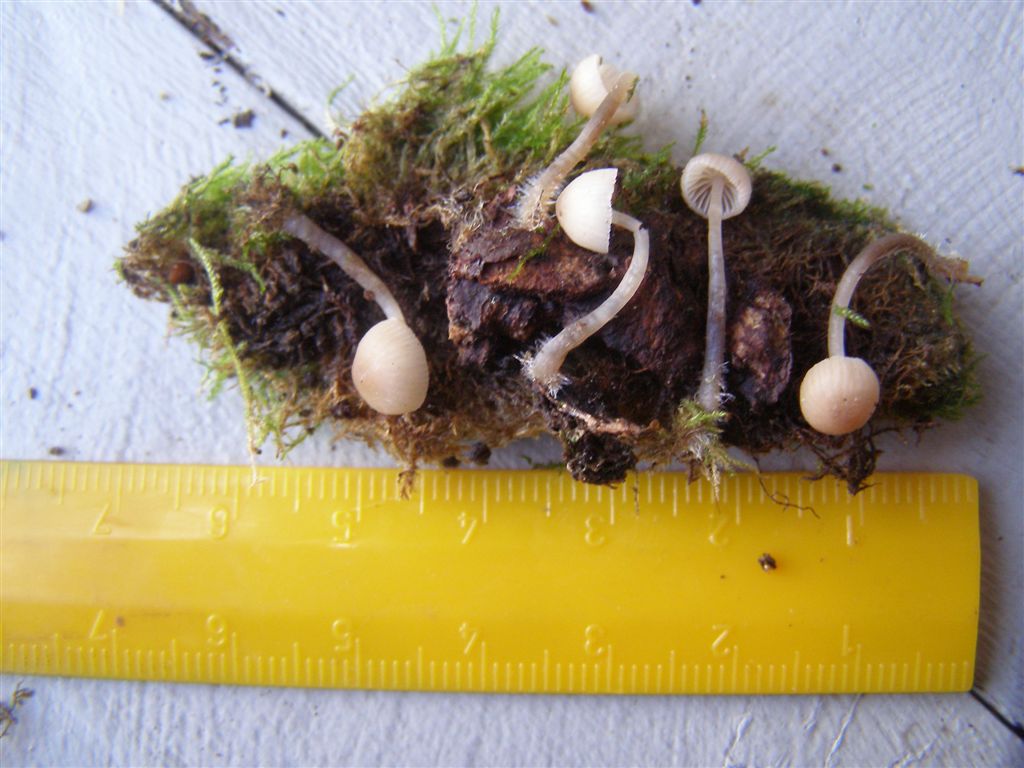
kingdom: Fungi
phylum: Basidiomycota
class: Agaricomycetes
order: Agaricales
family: Mycenaceae
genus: Mycena
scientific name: Mycena arcangeliana
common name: oliven-huesvamp
